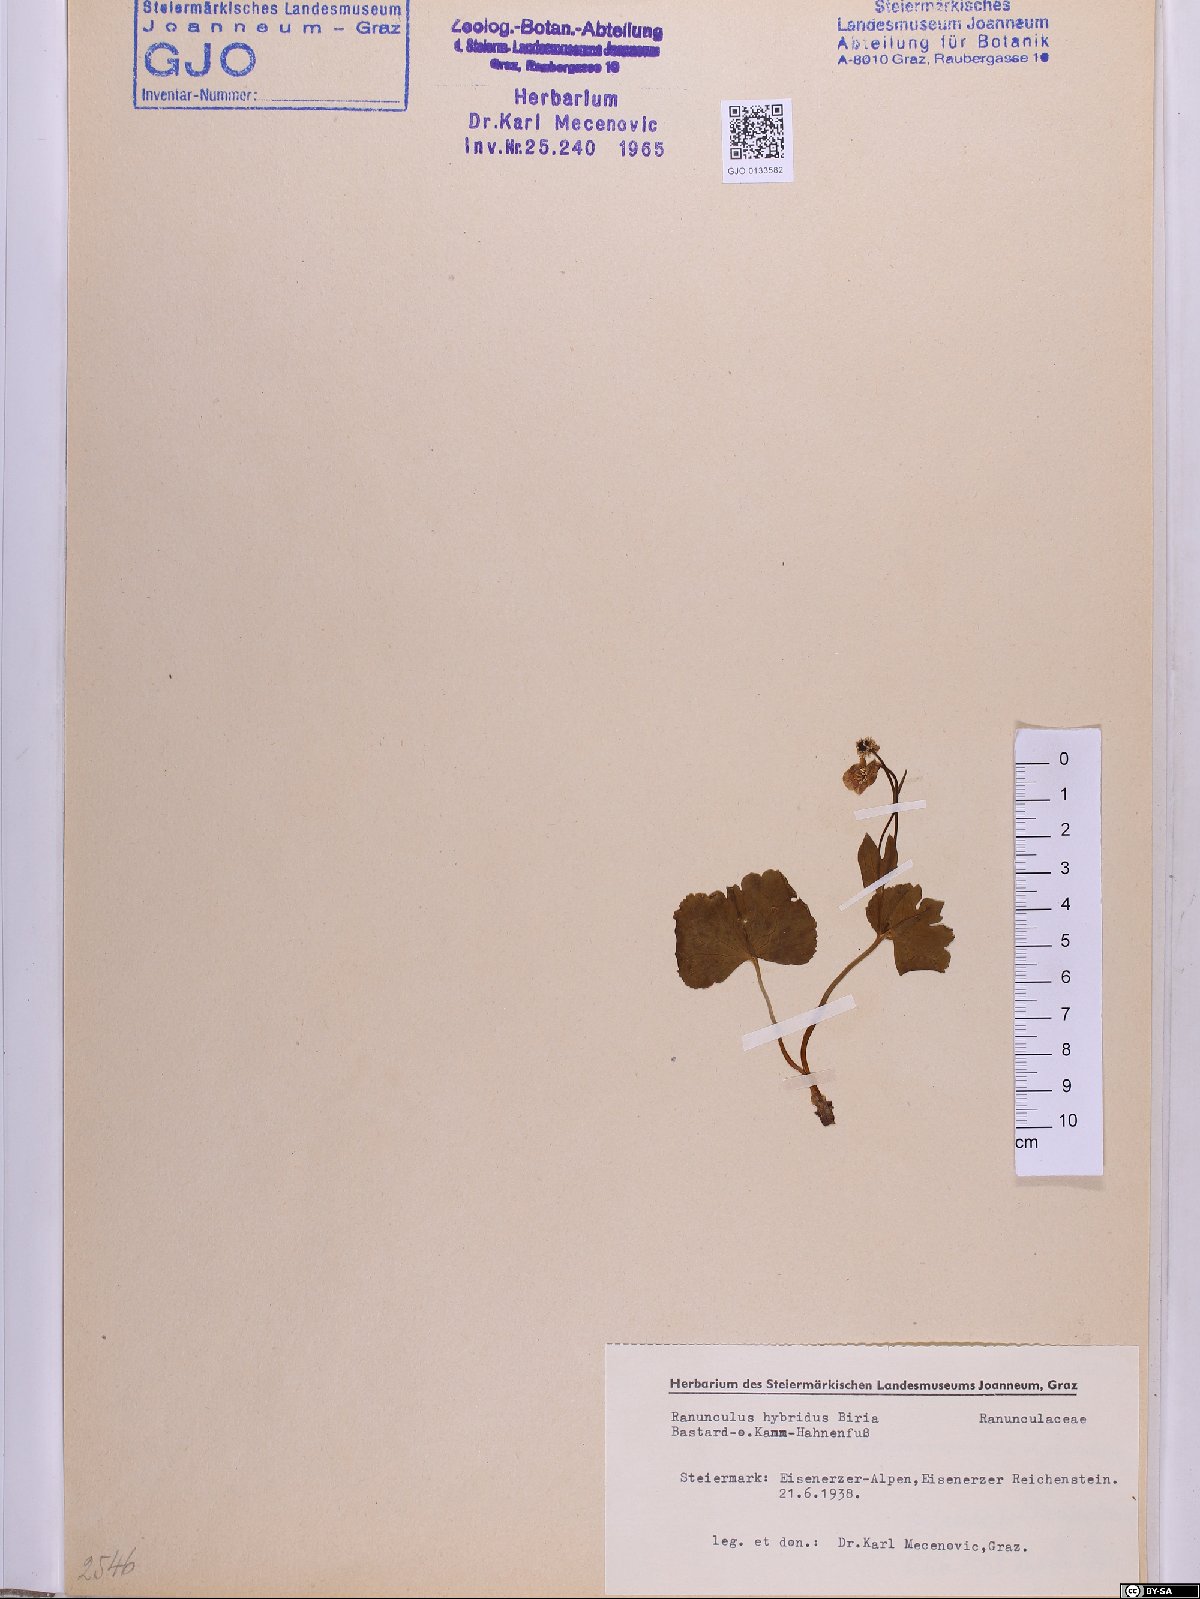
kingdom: Plantae
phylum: Tracheophyta
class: Magnoliopsida
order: Ranunculales
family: Ranunculaceae
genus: Ranunculus
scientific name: Ranunculus hybridus
